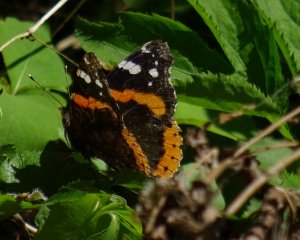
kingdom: Animalia
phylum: Arthropoda
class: Insecta
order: Lepidoptera
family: Nymphalidae
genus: Vanessa
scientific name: Vanessa atalanta
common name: Red Admiral
